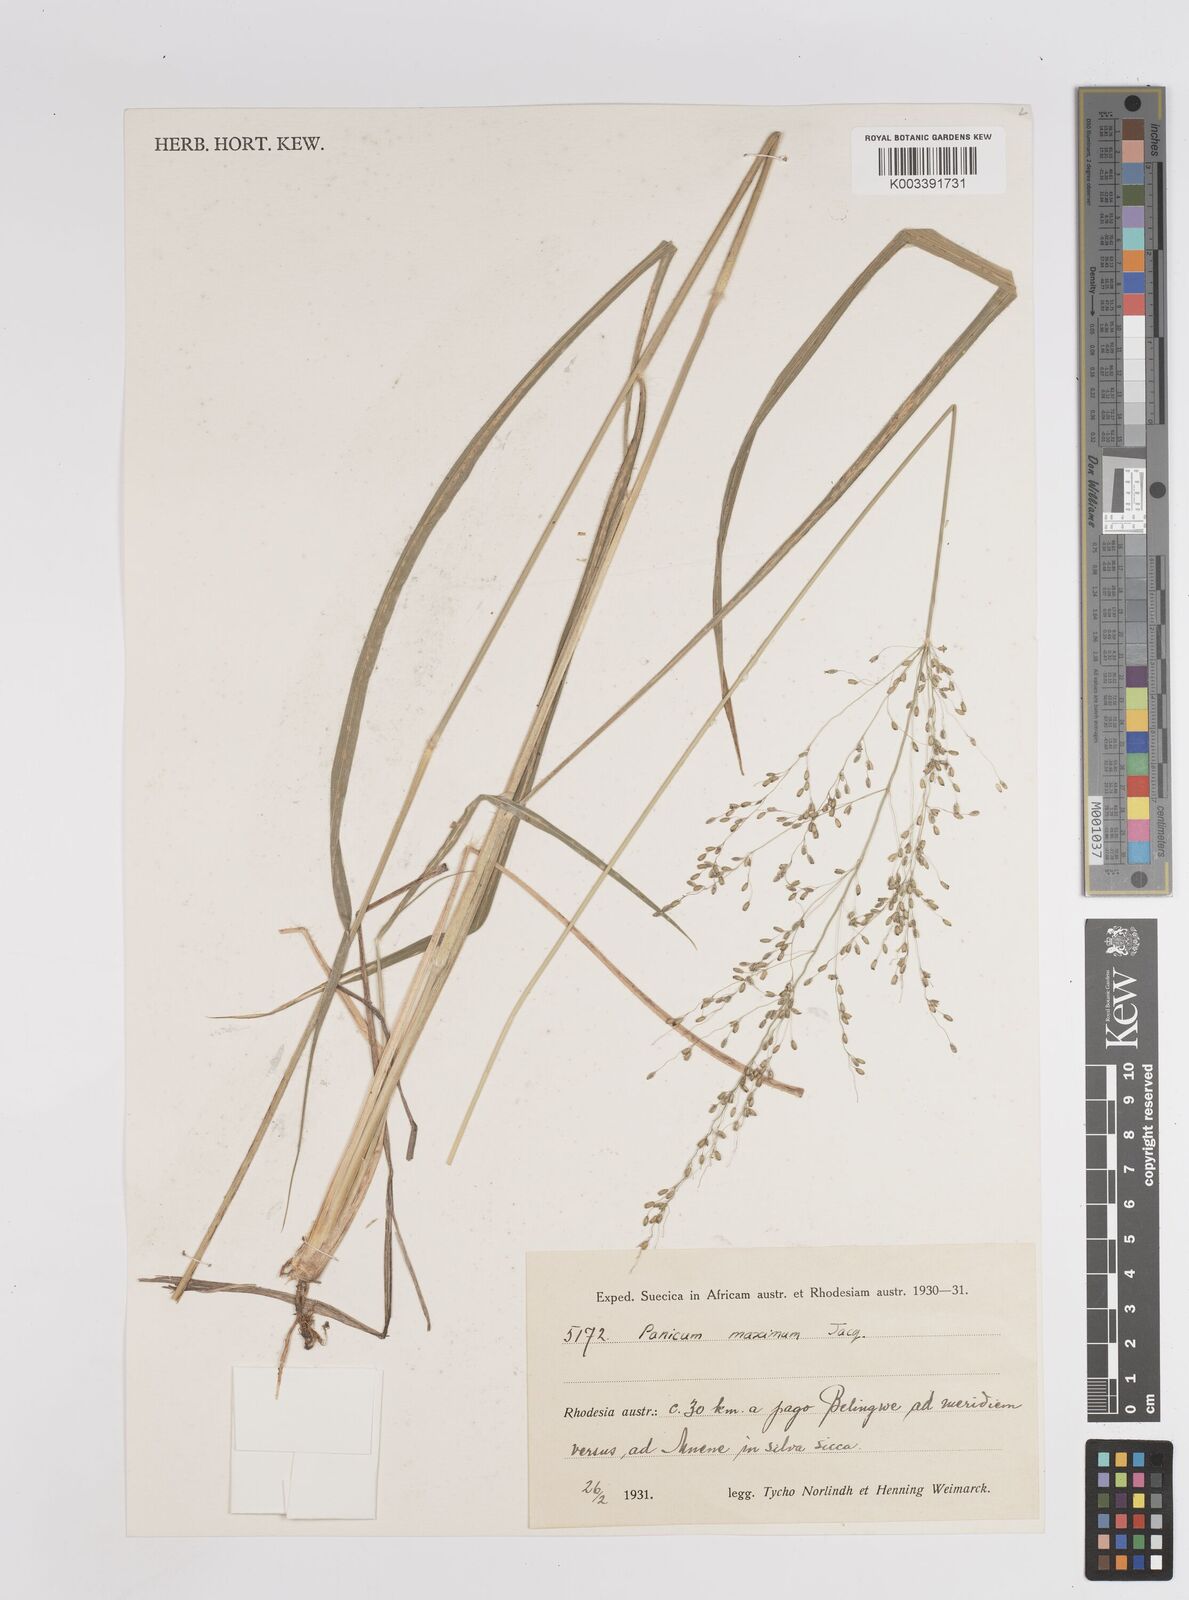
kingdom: Plantae
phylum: Tracheophyta
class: Liliopsida
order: Poales
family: Poaceae
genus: Megathyrsus
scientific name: Megathyrsus maximus
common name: Guineagrass
